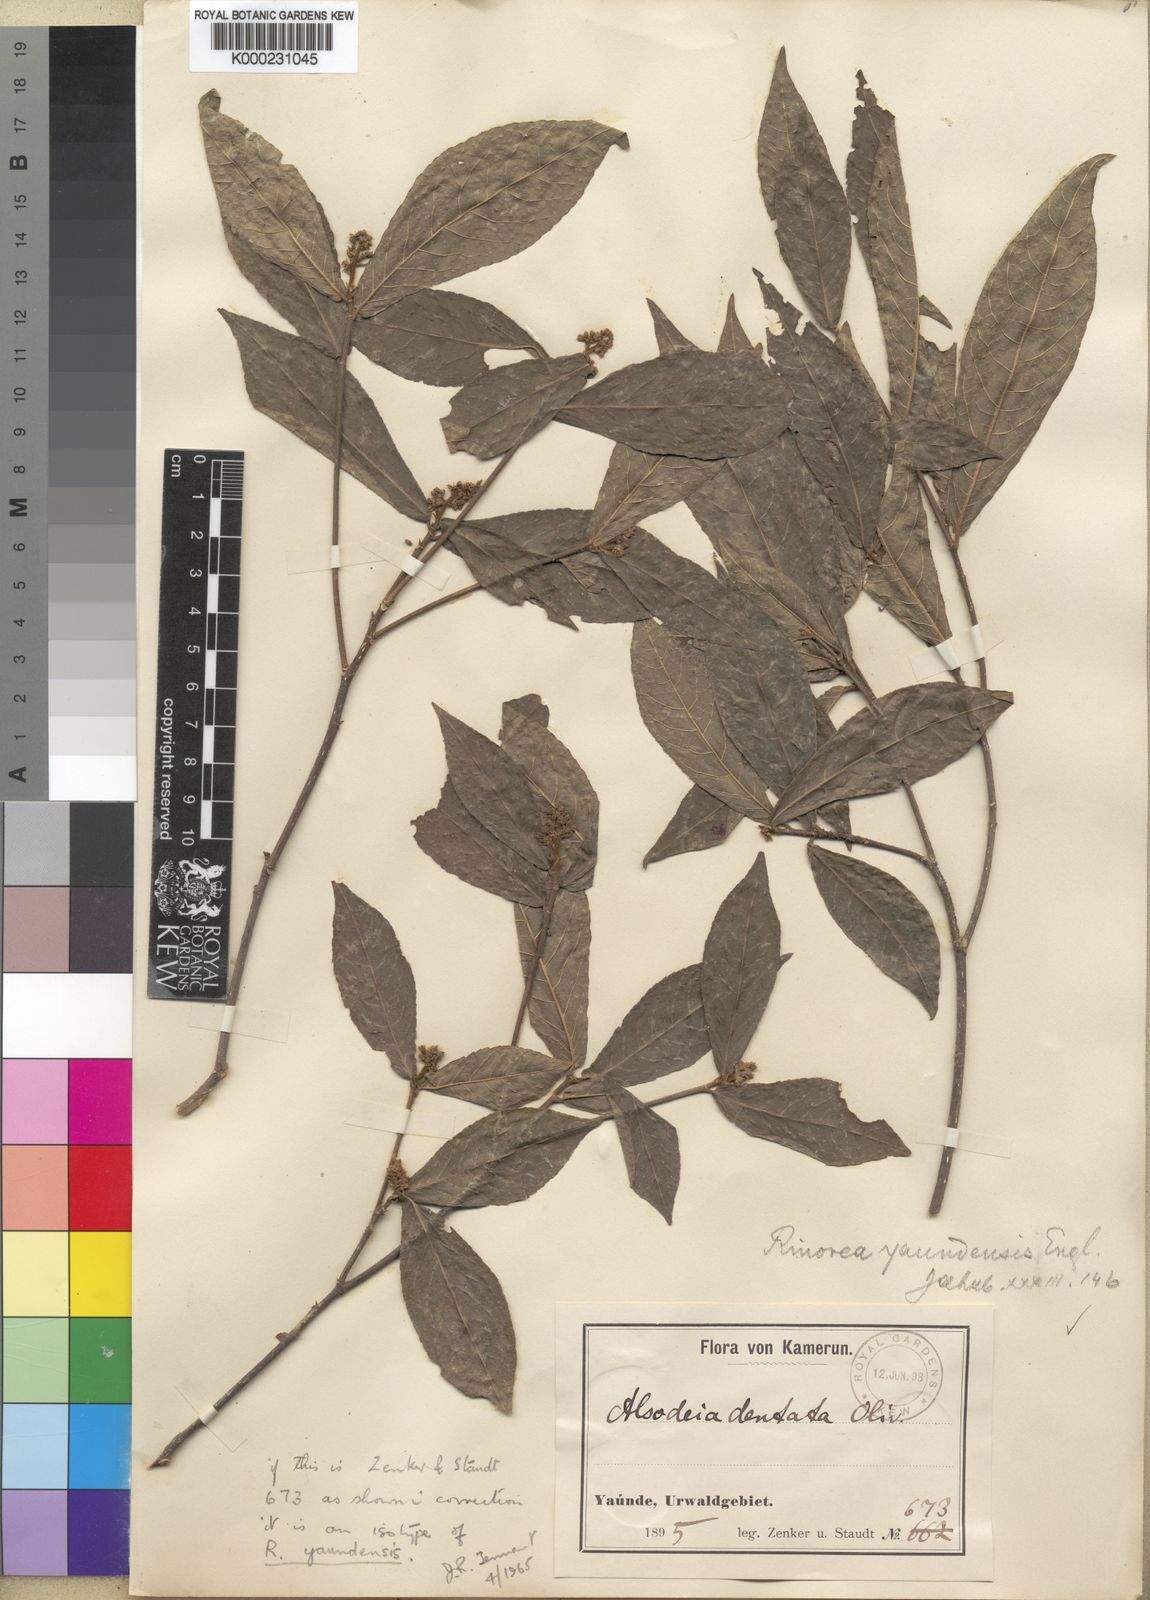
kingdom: Plantae
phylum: Tracheophyta
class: Magnoliopsida
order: Malpighiales
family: Violaceae
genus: Rinorea
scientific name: Rinorea yaundensis
